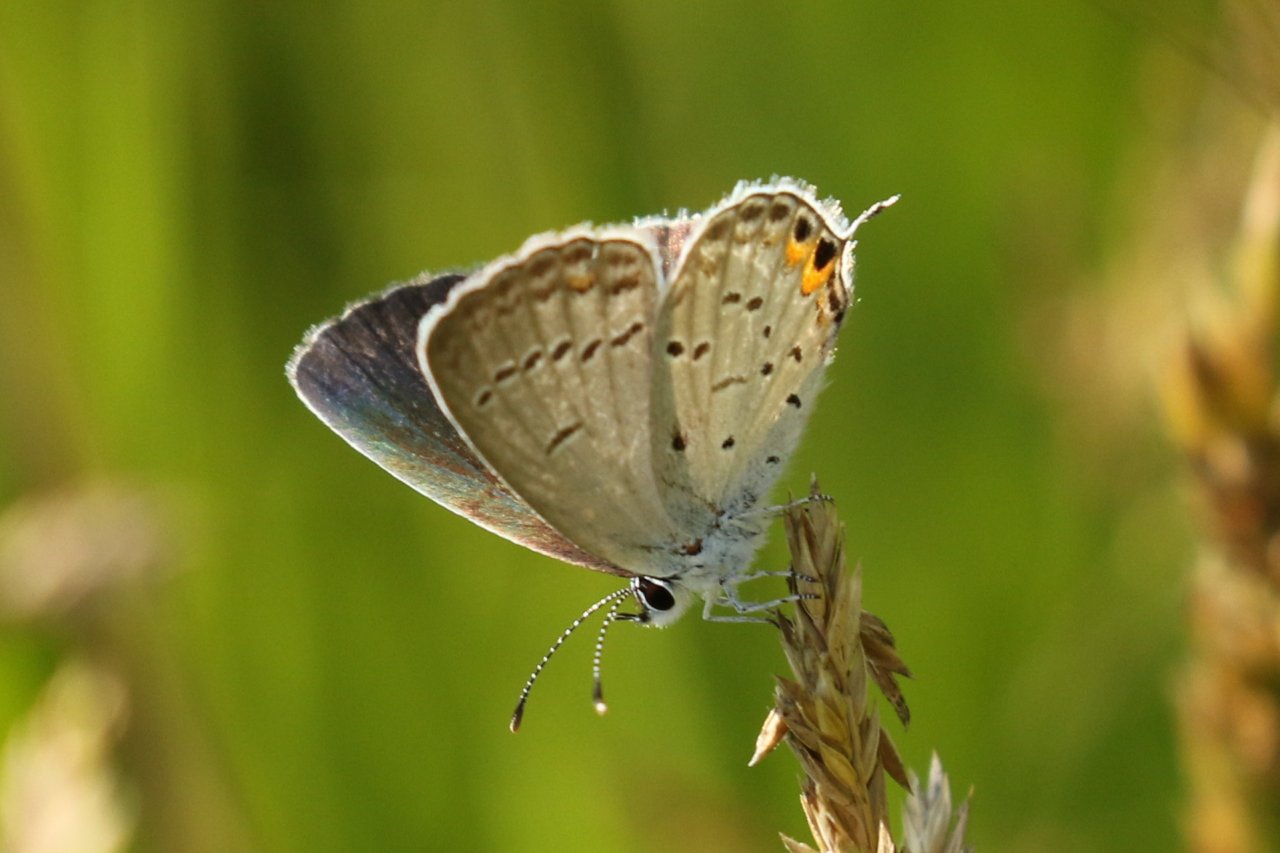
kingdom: Animalia
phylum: Arthropoda
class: Insecta
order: Lepidoptera
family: Lycaenidae
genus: Elkalyce
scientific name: Elkalyce comyntas
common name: Eastern Tailed-Blue
